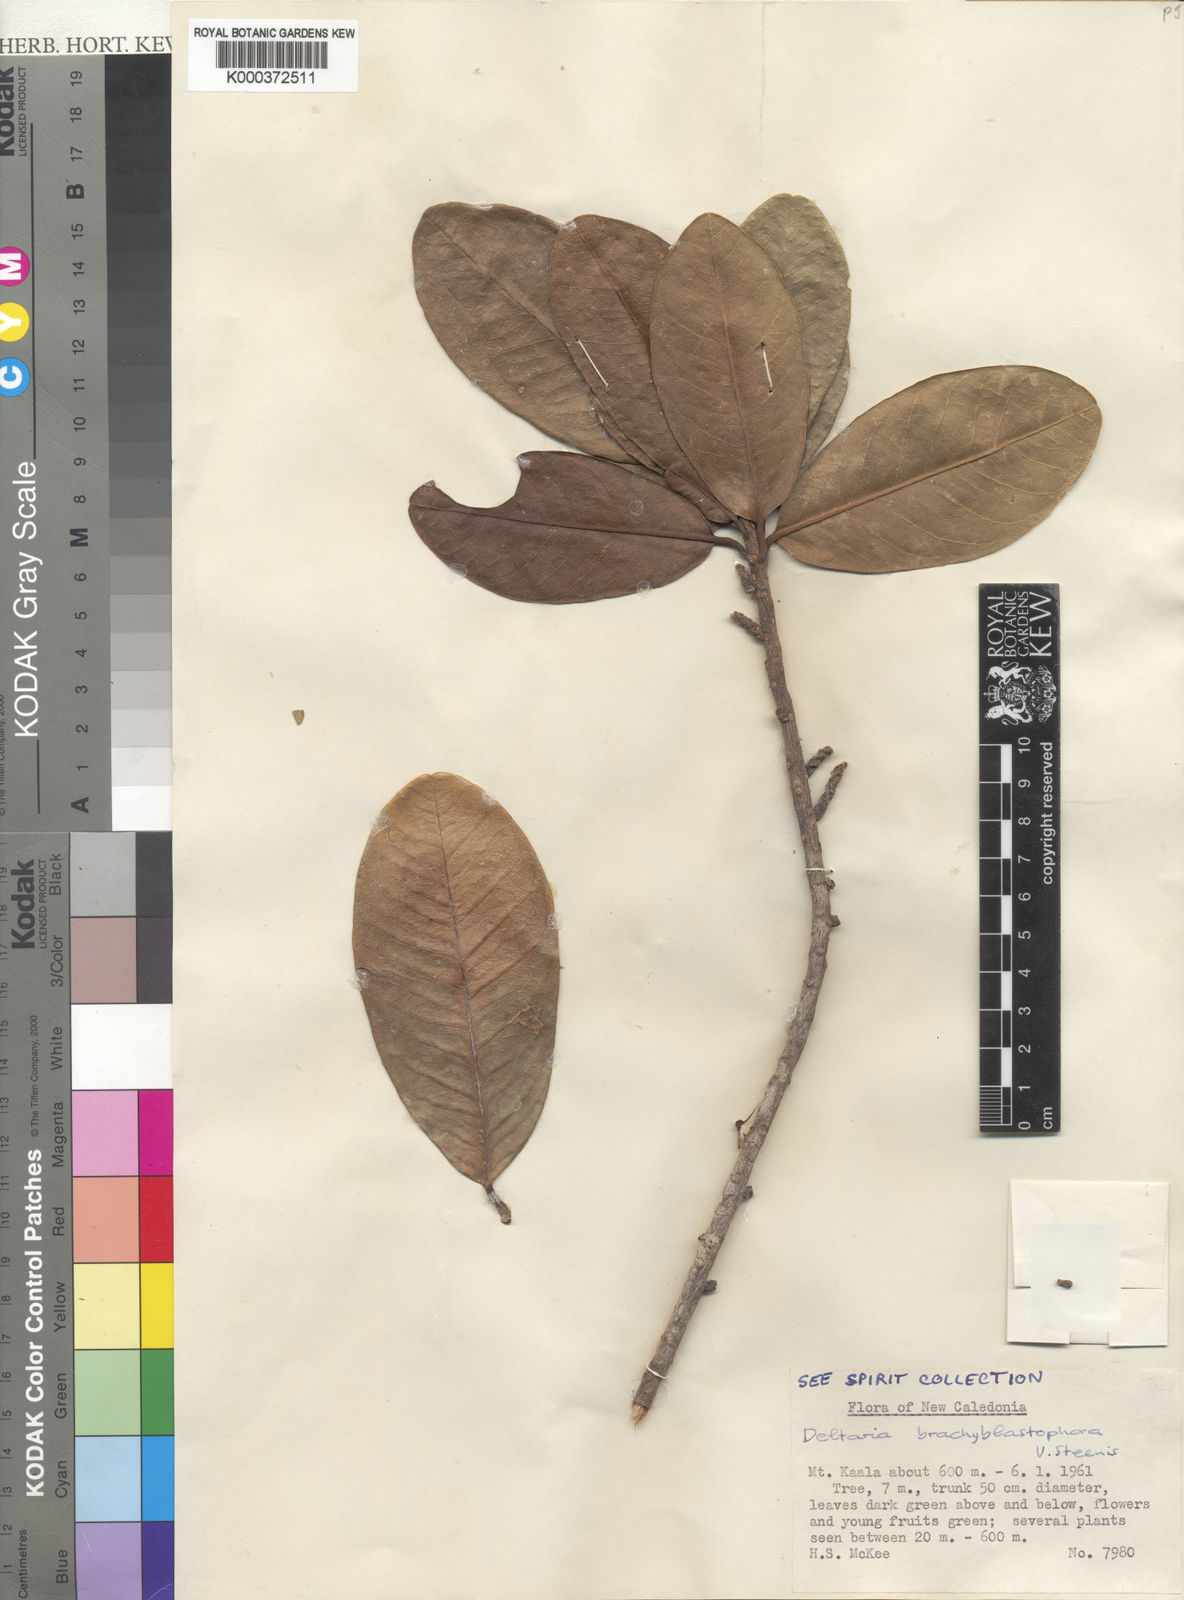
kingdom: Plantae
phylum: Tracheophyta
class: Magnoliopsida
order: Malvales
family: Thymelaeaceae
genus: Deltaria
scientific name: Deltaria brachyblastophora
